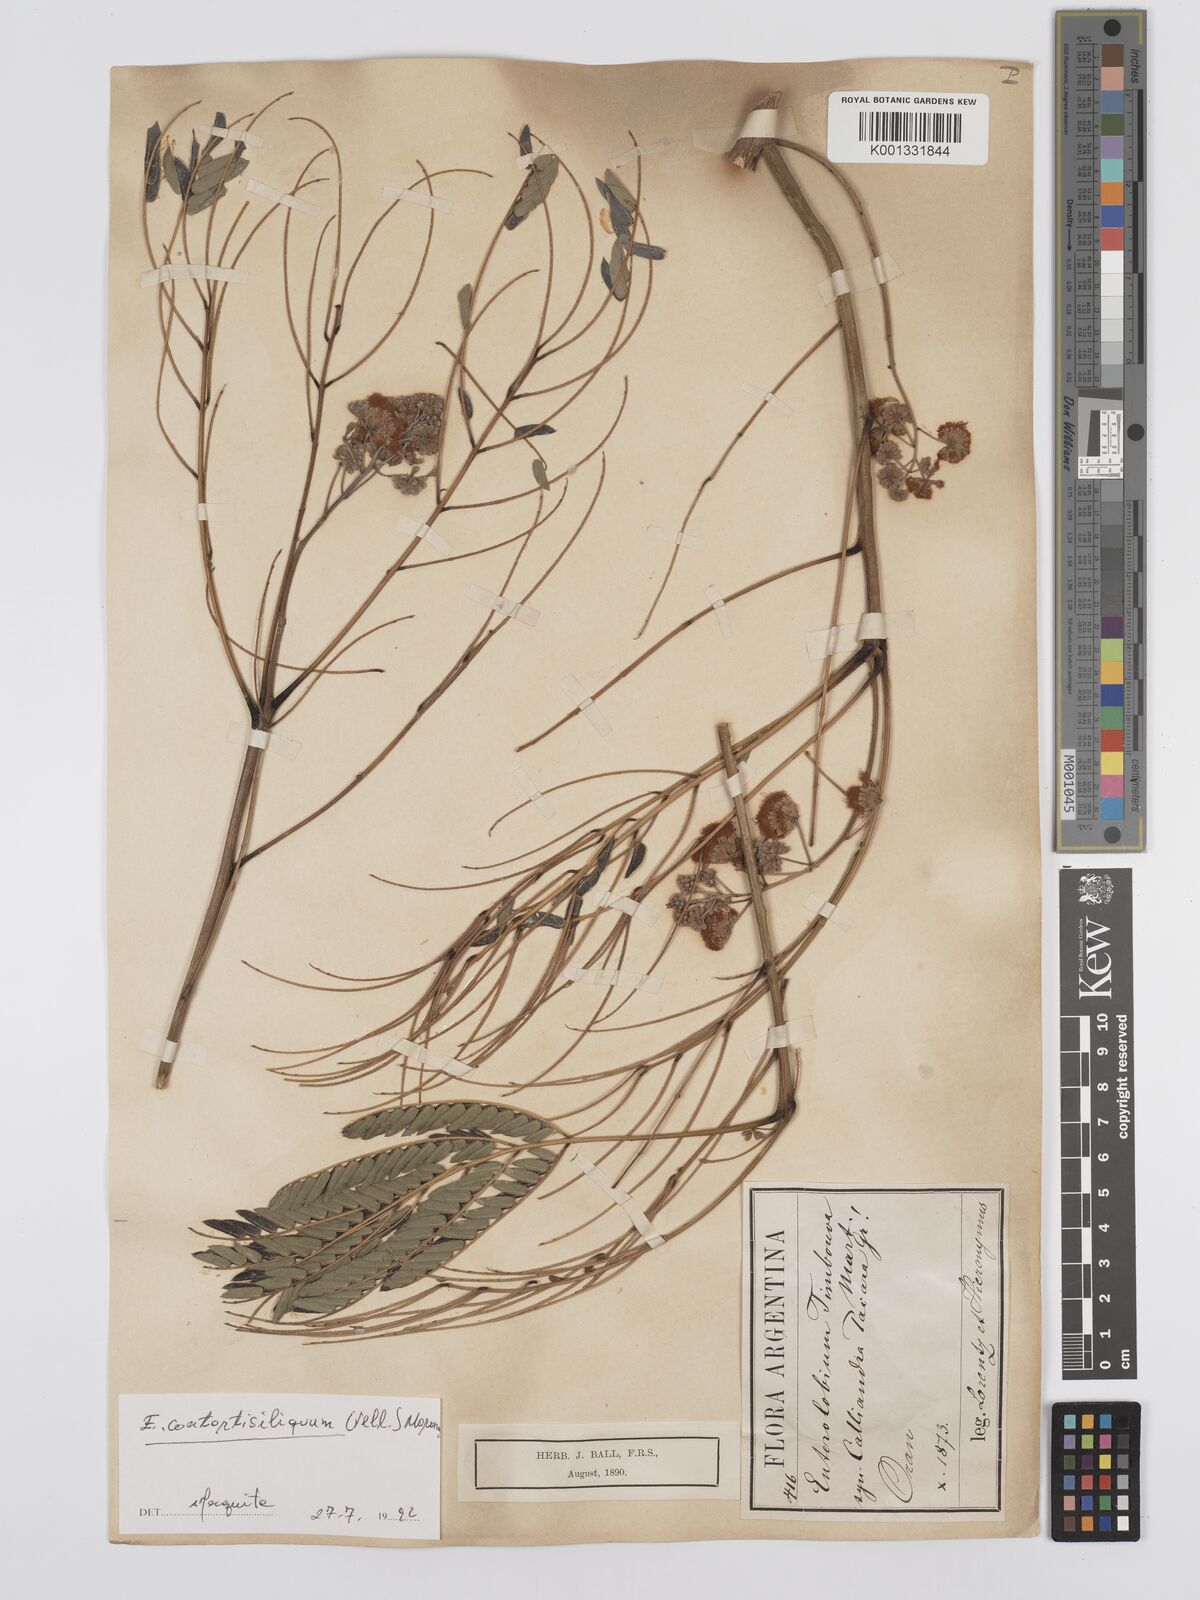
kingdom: Plantae
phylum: Tracheophyta
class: Magnoliopsida
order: Fabales
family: Fabaceae
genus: Enterolobium
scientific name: Enterolobium contortisiliquum
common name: Pacara earpod tree
